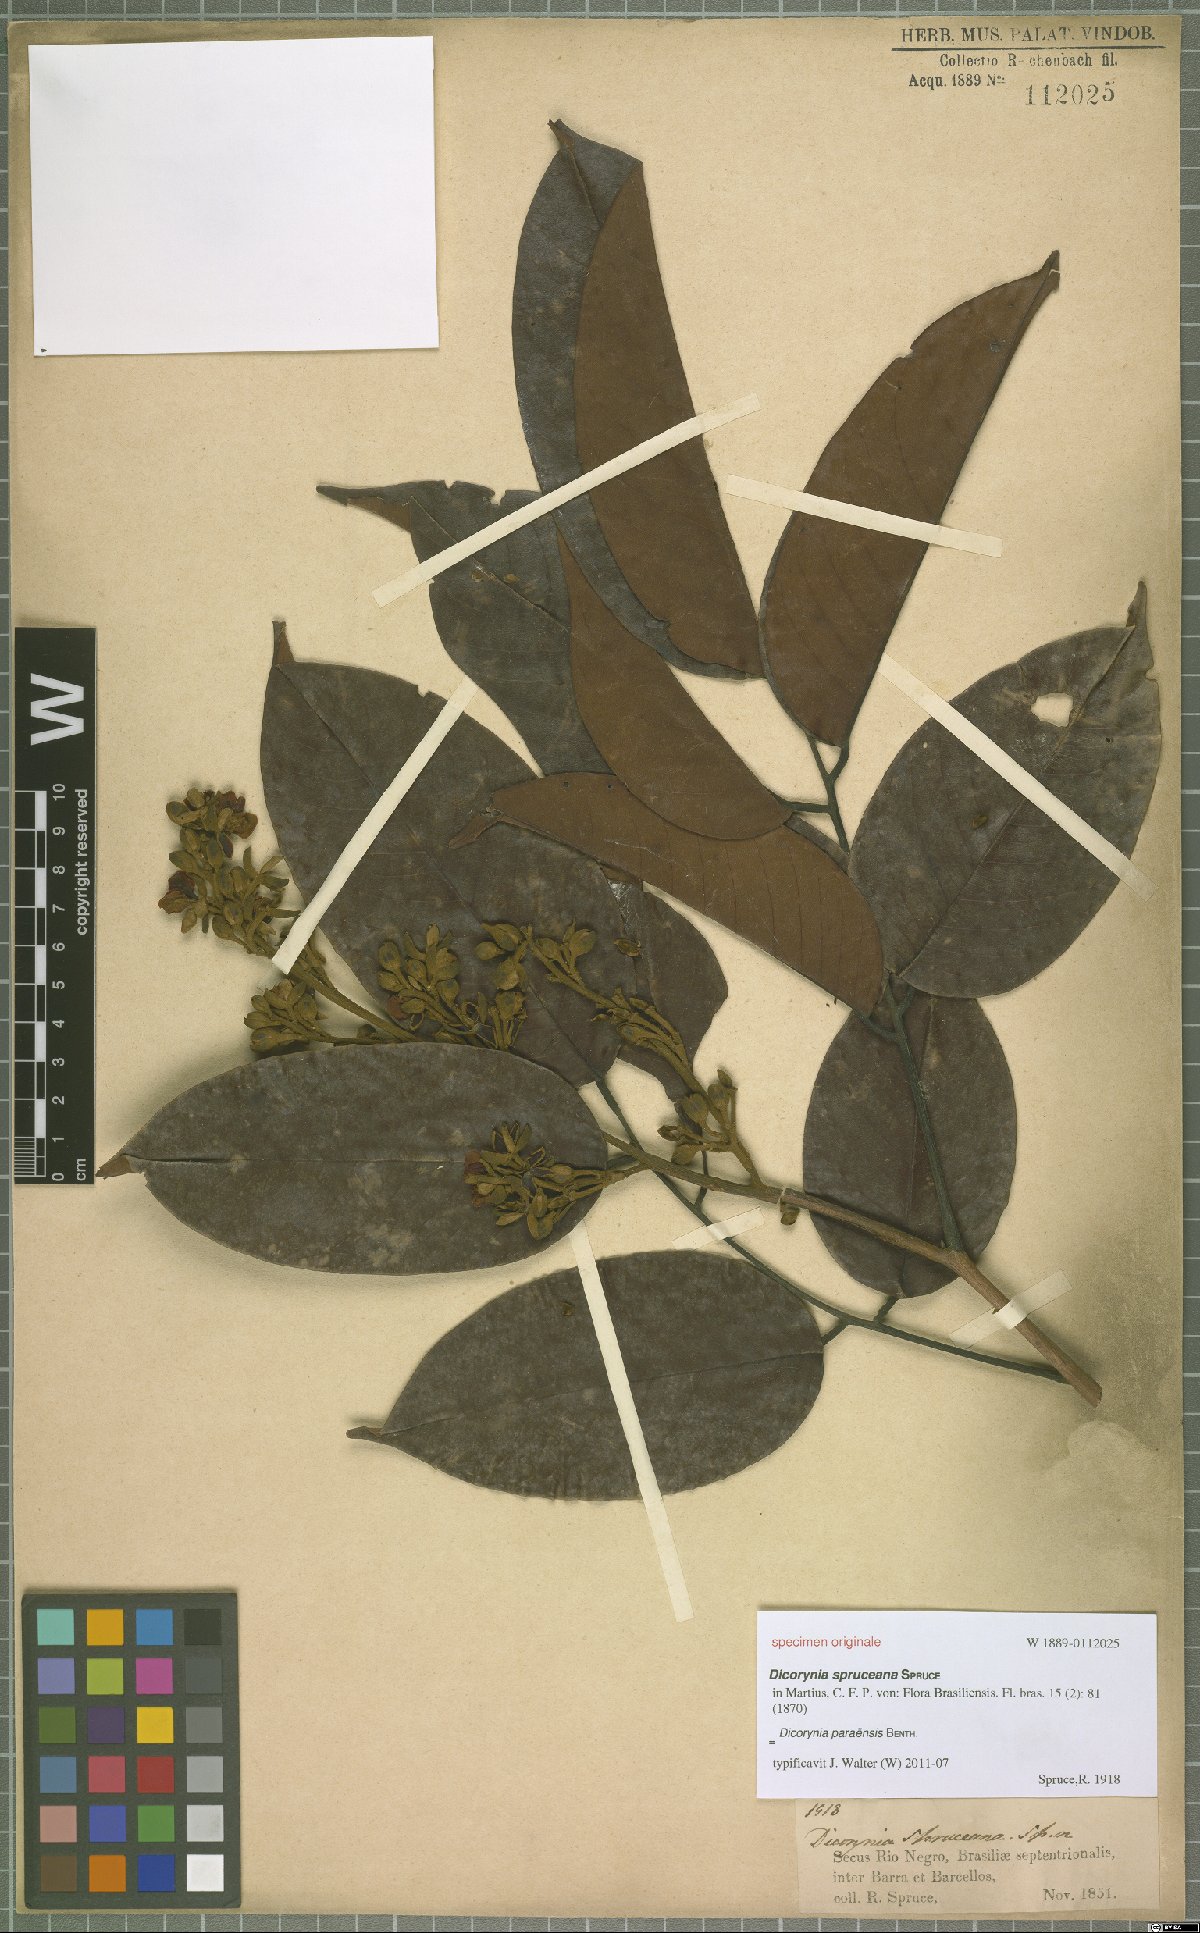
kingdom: Plantae
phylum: Tracheophyta
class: Magnoliopsida
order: Fabales
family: Fabaceae
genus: Dicorynia
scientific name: Dicorynia paraensis
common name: Angelique
